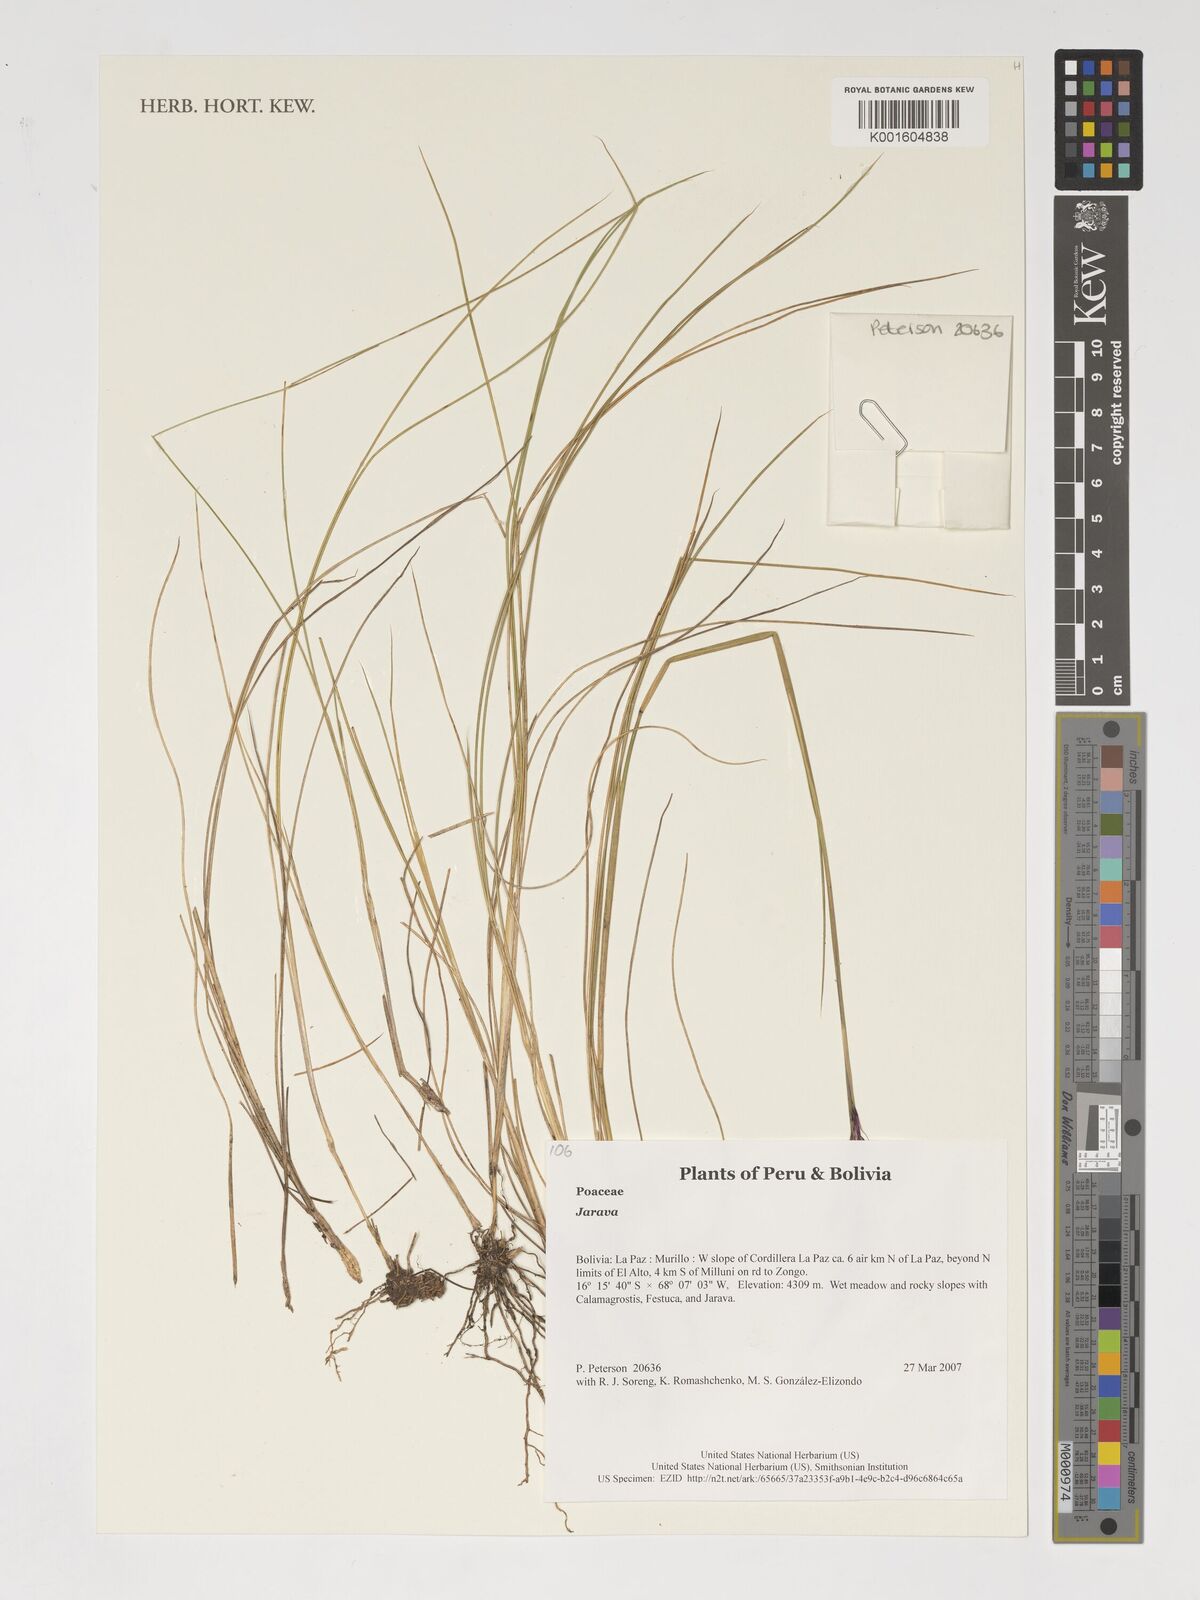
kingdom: Plantae
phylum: Tracheophyta
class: Liliopsida
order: Poales
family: Poaceae
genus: Jarava
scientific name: Jarava
